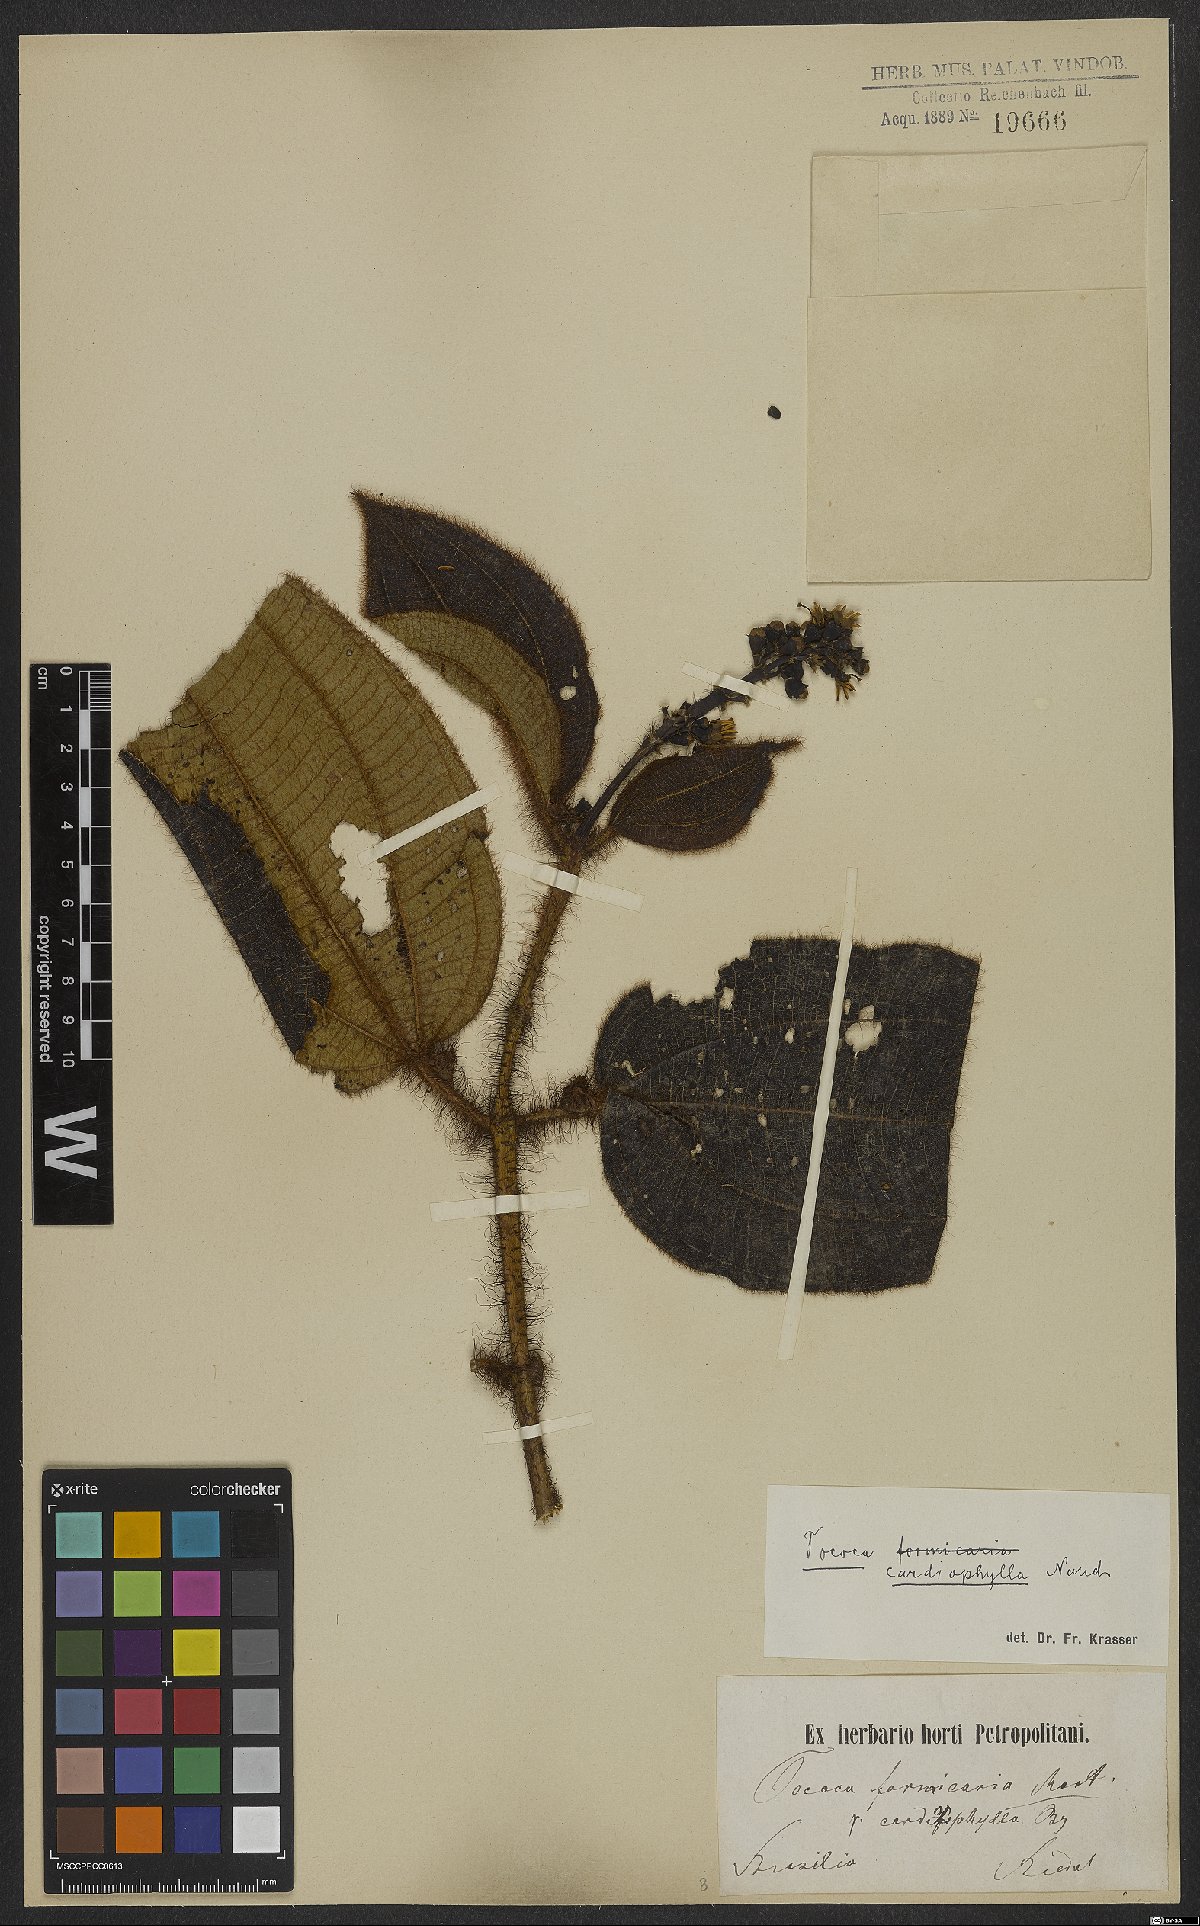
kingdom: Plantae
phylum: Tracheophyta
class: Magnoliopsida
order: Myrtales
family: Melastomataceae
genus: Miconia
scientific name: Miconia tococa
